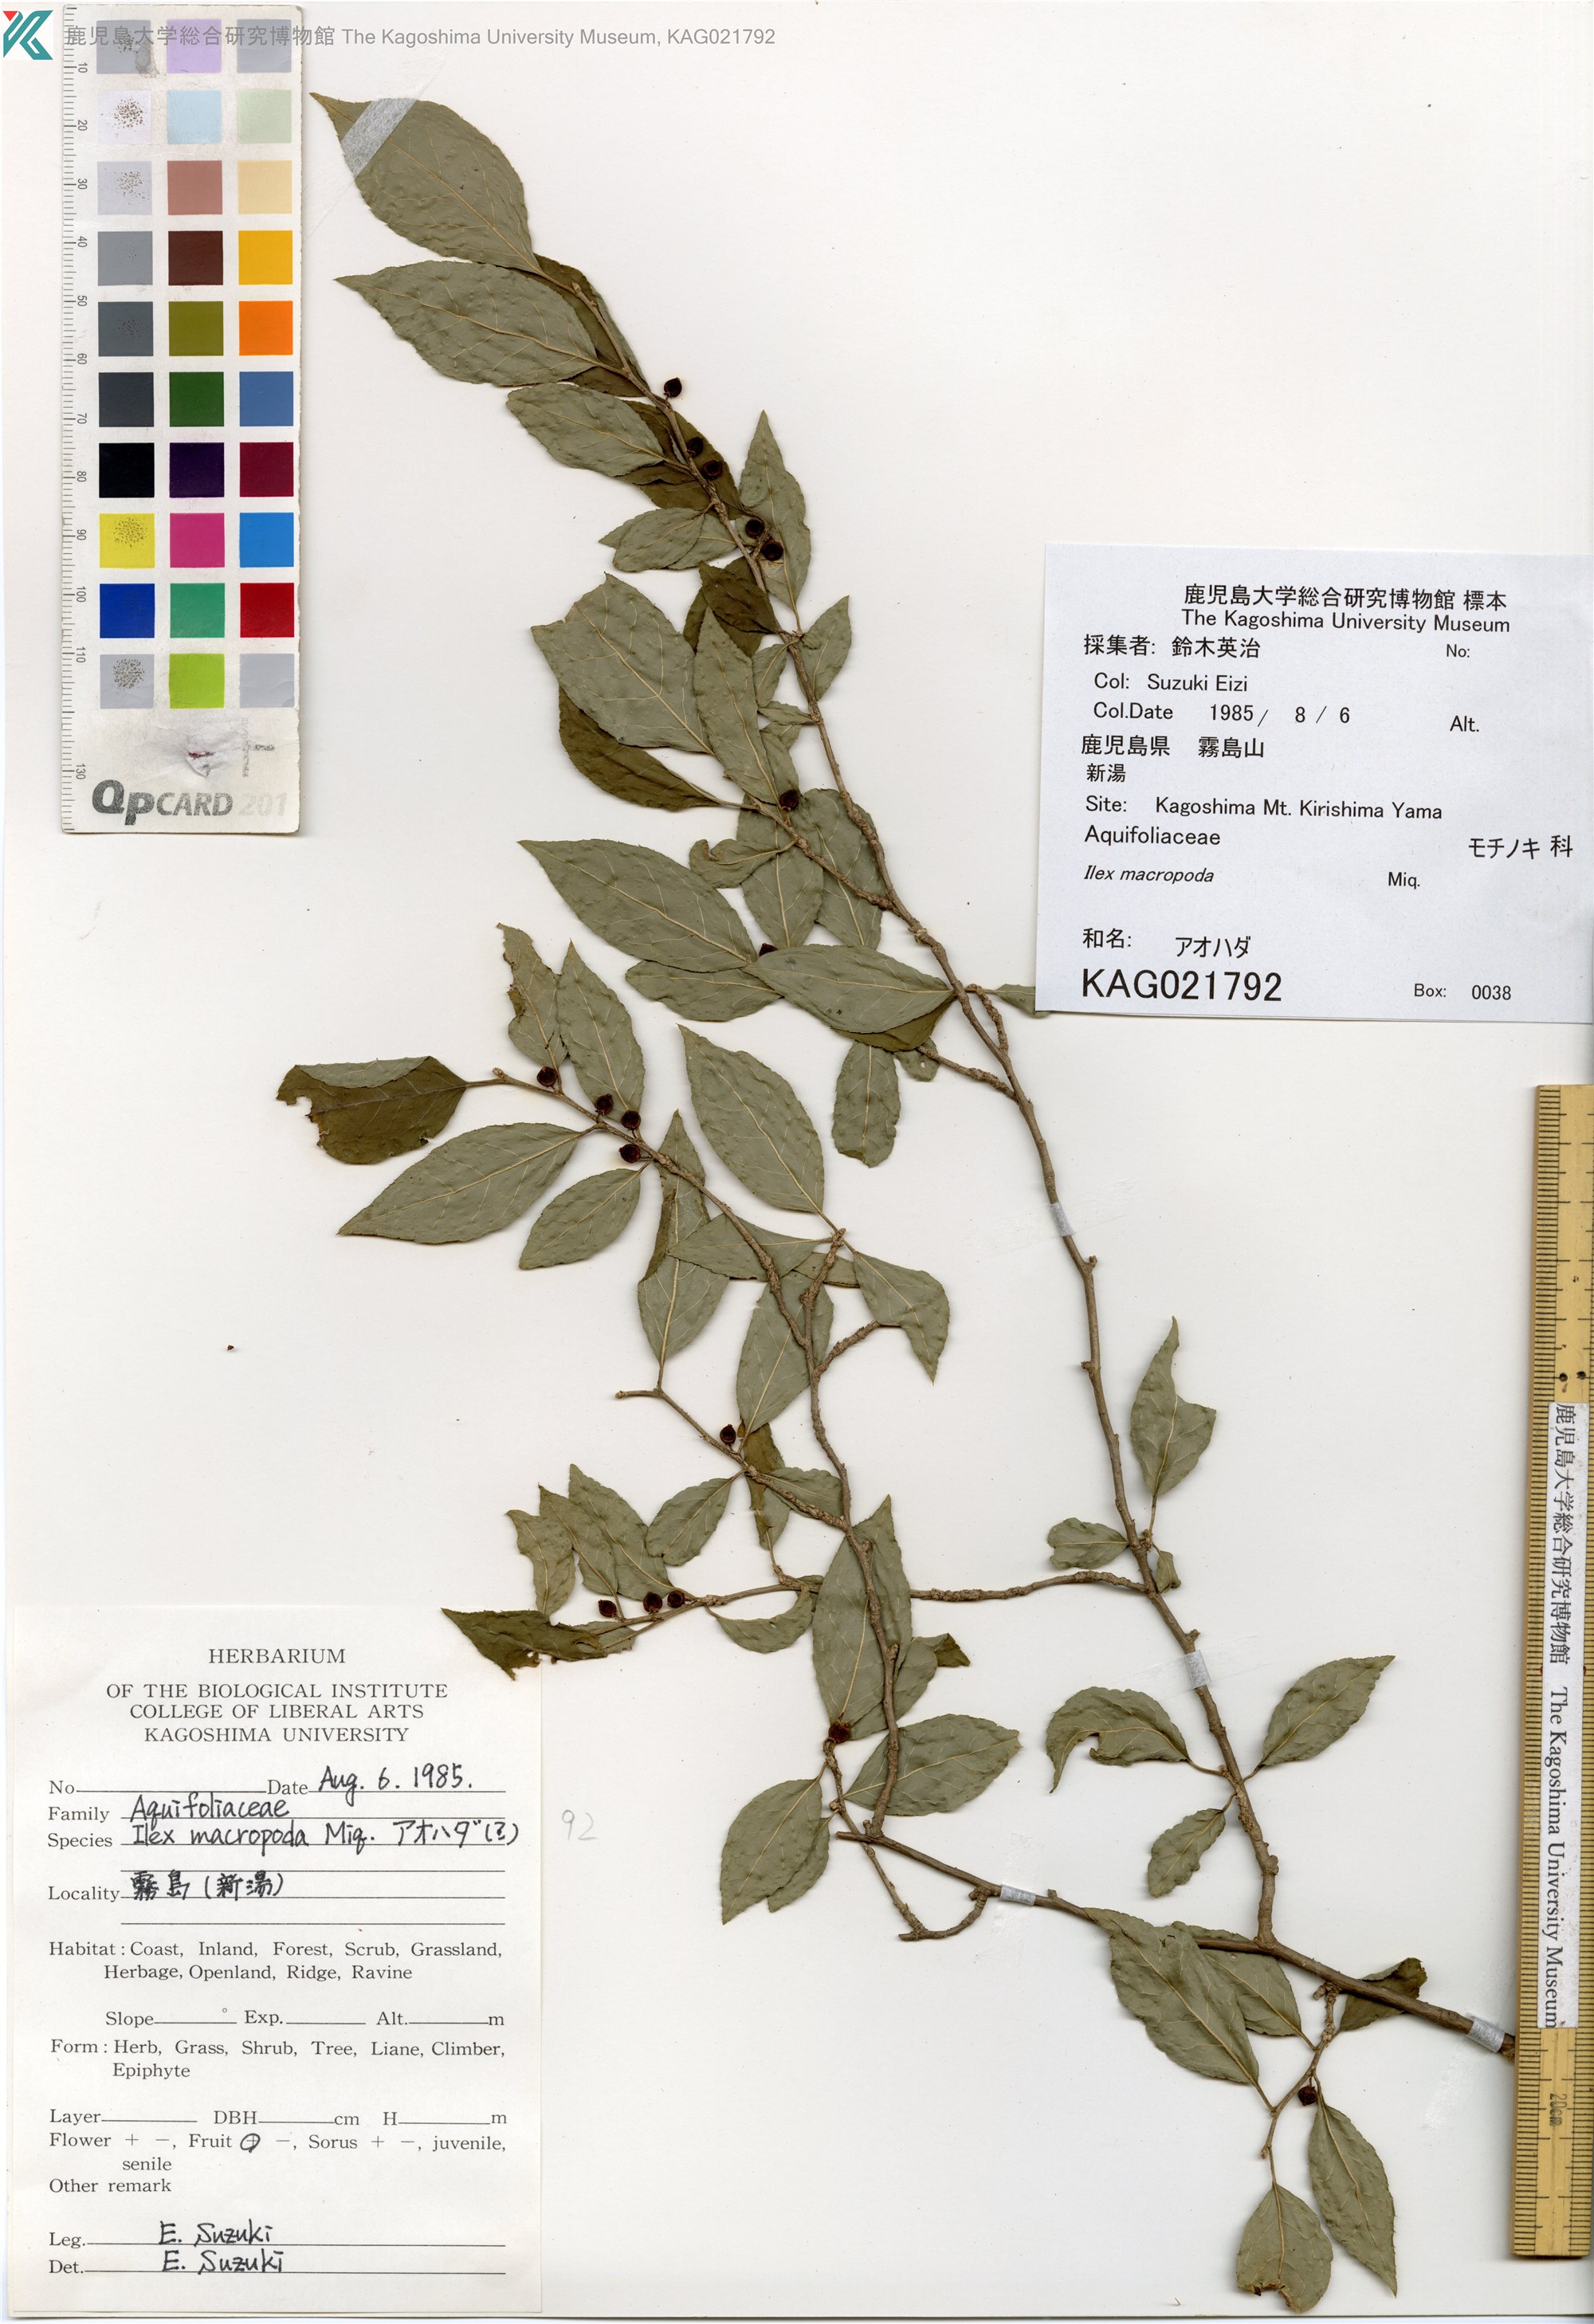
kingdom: Plantae
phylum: Tracheophyta
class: Magnoliopsida
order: Aquifoliales
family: Aquifoliaceae
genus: Ilex
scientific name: Ilex macropoda
